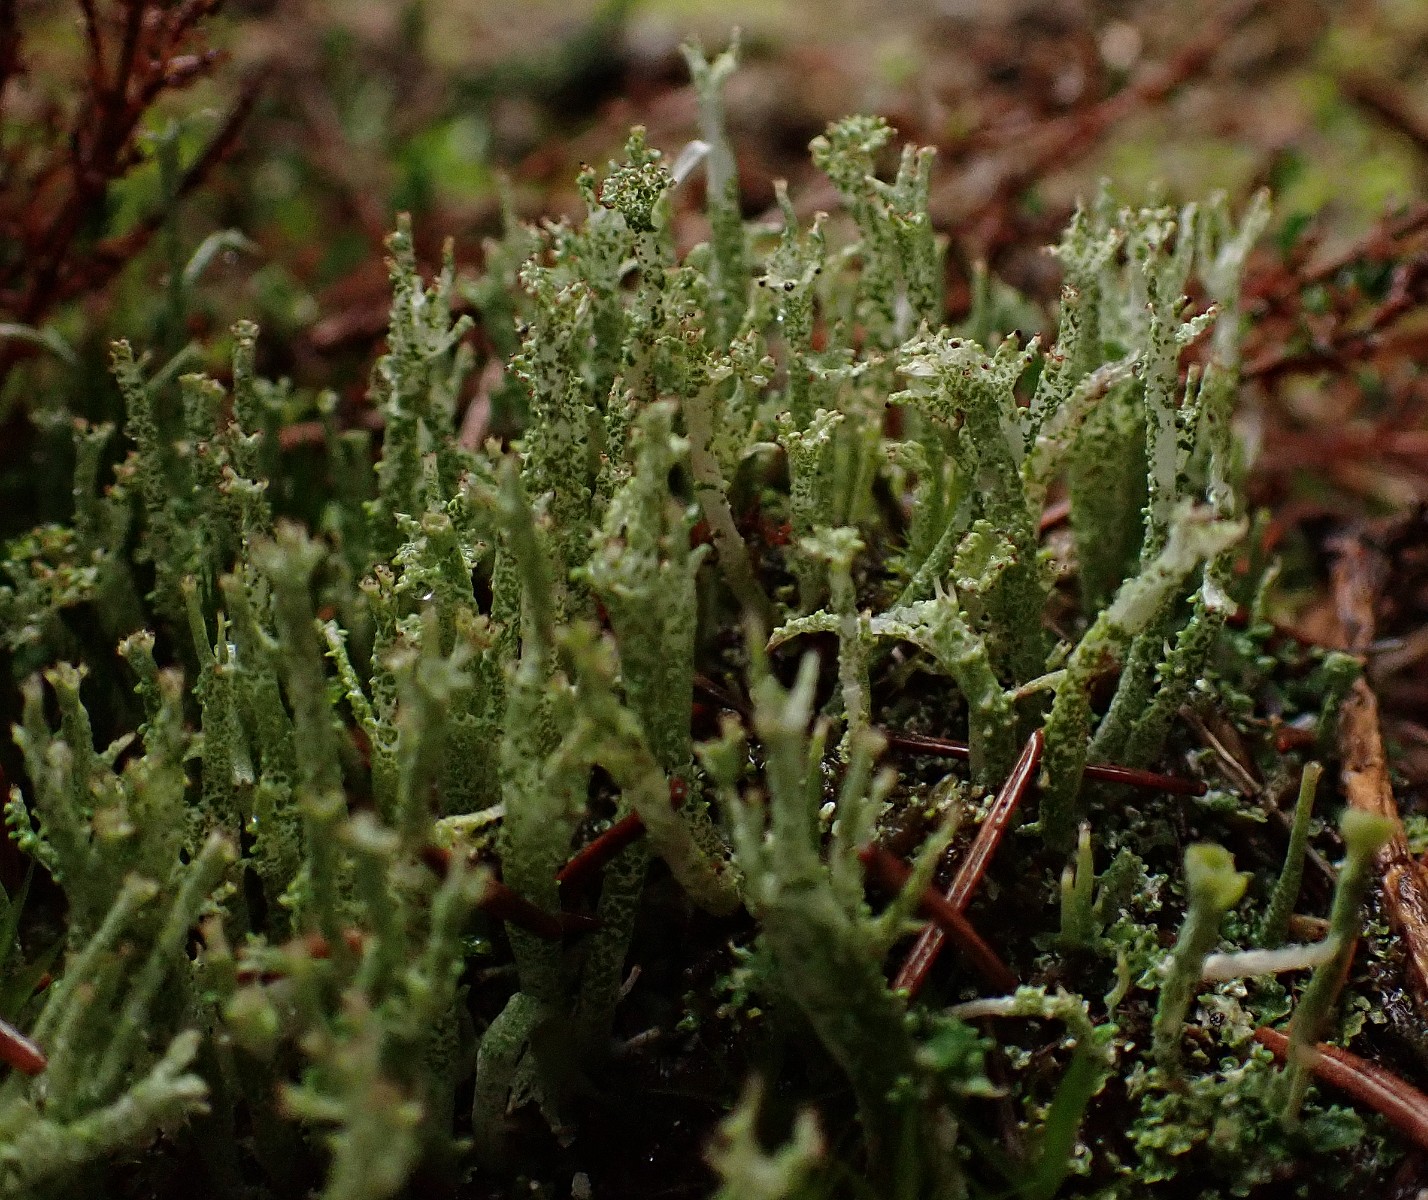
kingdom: Fungi
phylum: Ascomycota
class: Lecanoromycetes
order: Lecanorales
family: Cladoniaceae
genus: Cladonia
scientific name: Cladonia ramulosa
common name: kliddet bægerlav
